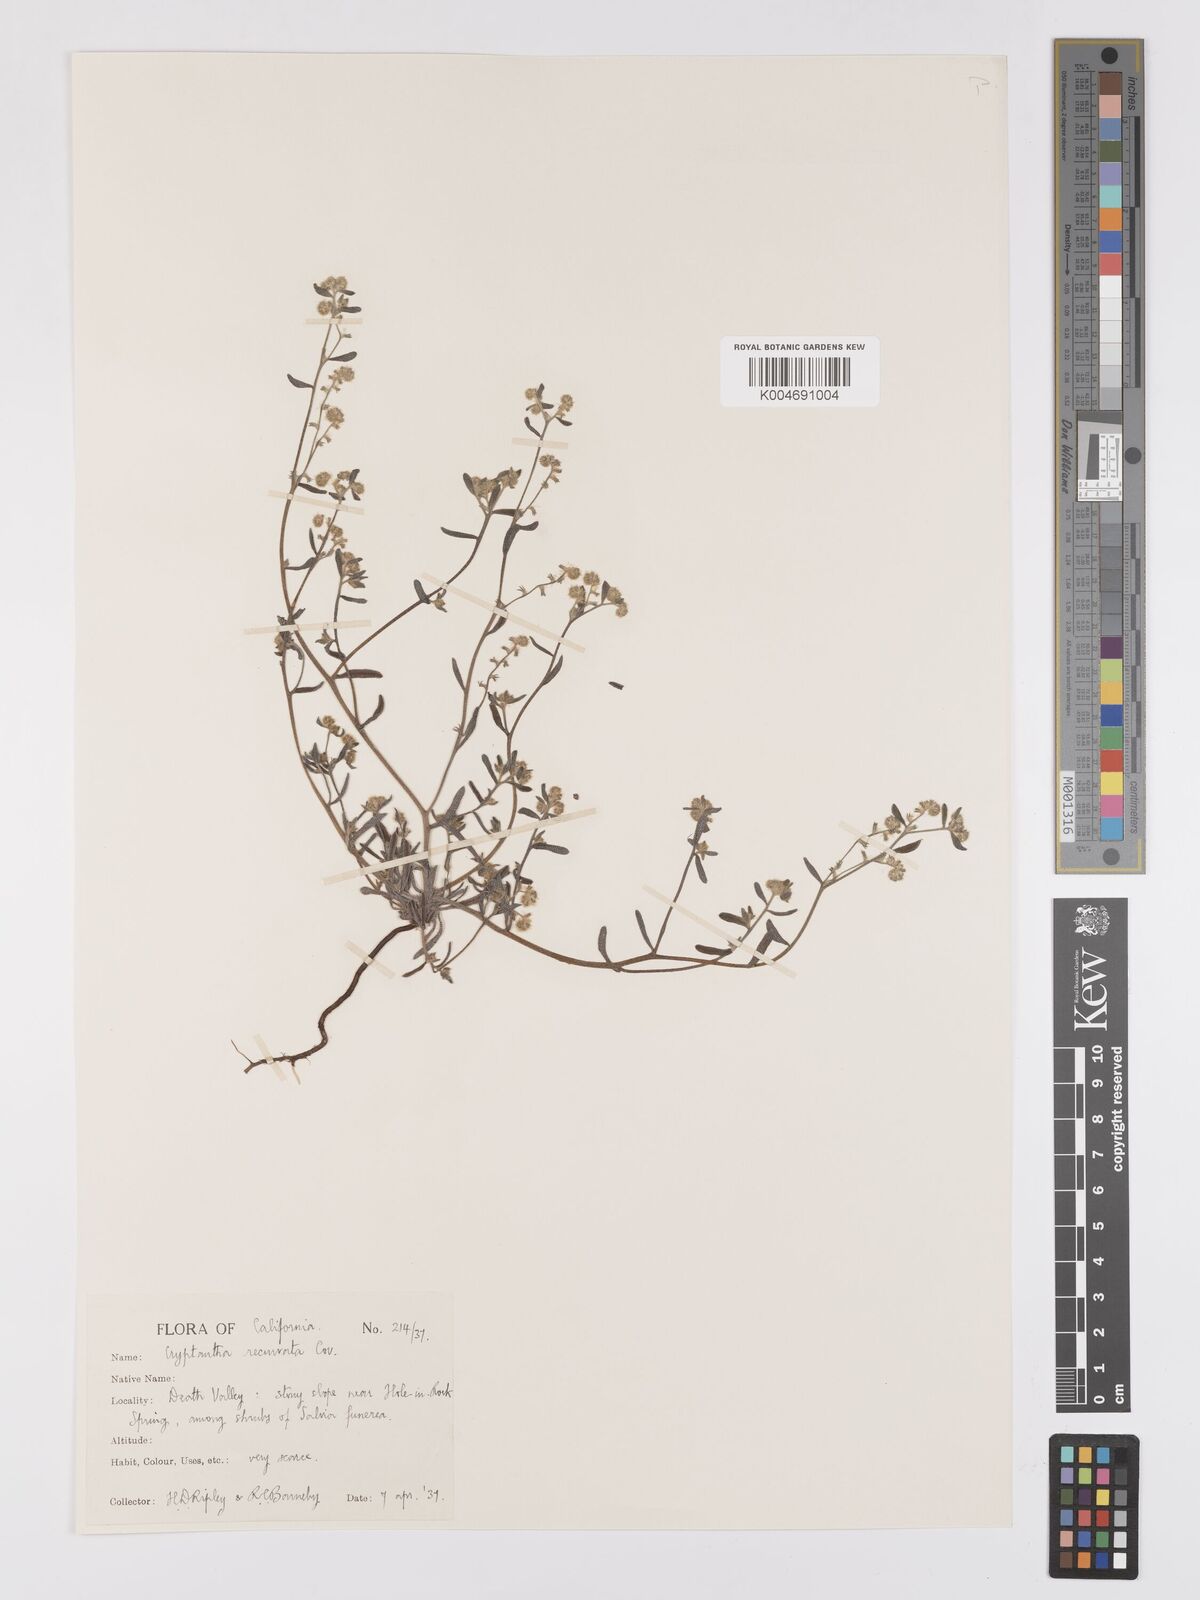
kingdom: Plantae
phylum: Tracheophyta
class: Magnoliopsida
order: Boraginales
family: Boraginaceae
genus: Cryptantha
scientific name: Cryptantha recurvata
